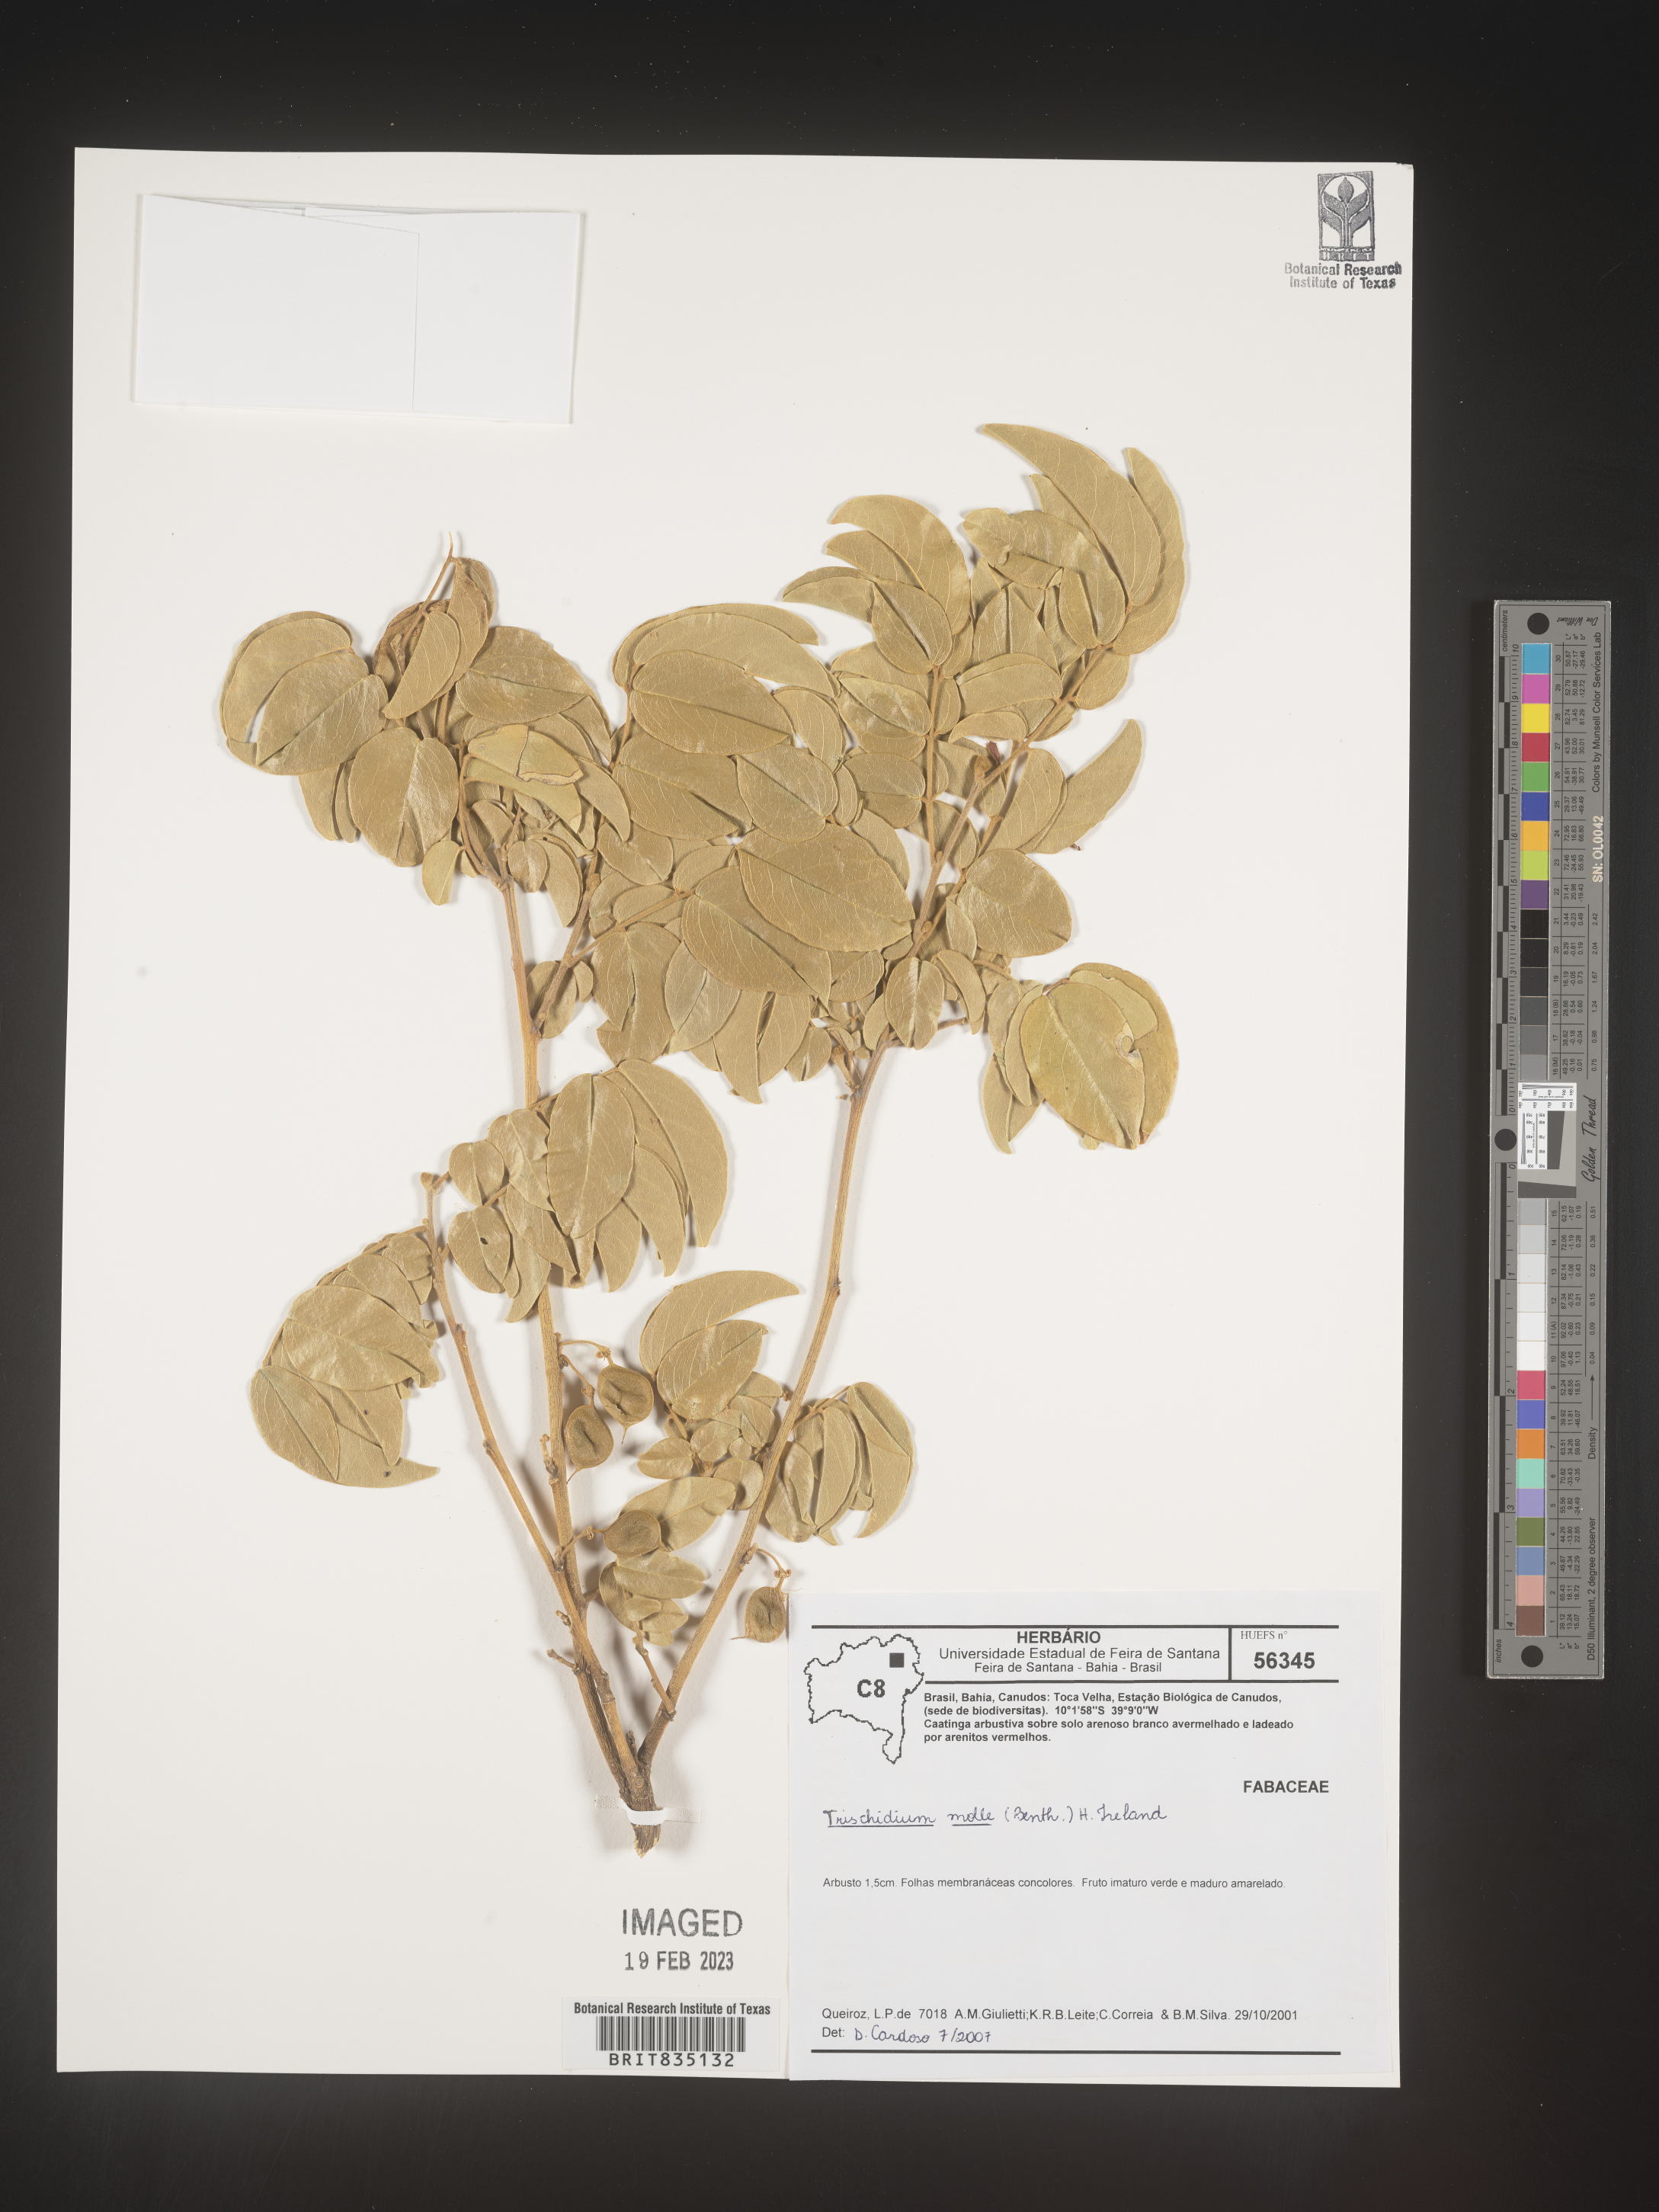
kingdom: Plantae
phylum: Tracheophyta
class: Magnoliopsida
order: Fabales
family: Fabaceae
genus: Trischidium
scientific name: Trischidium
